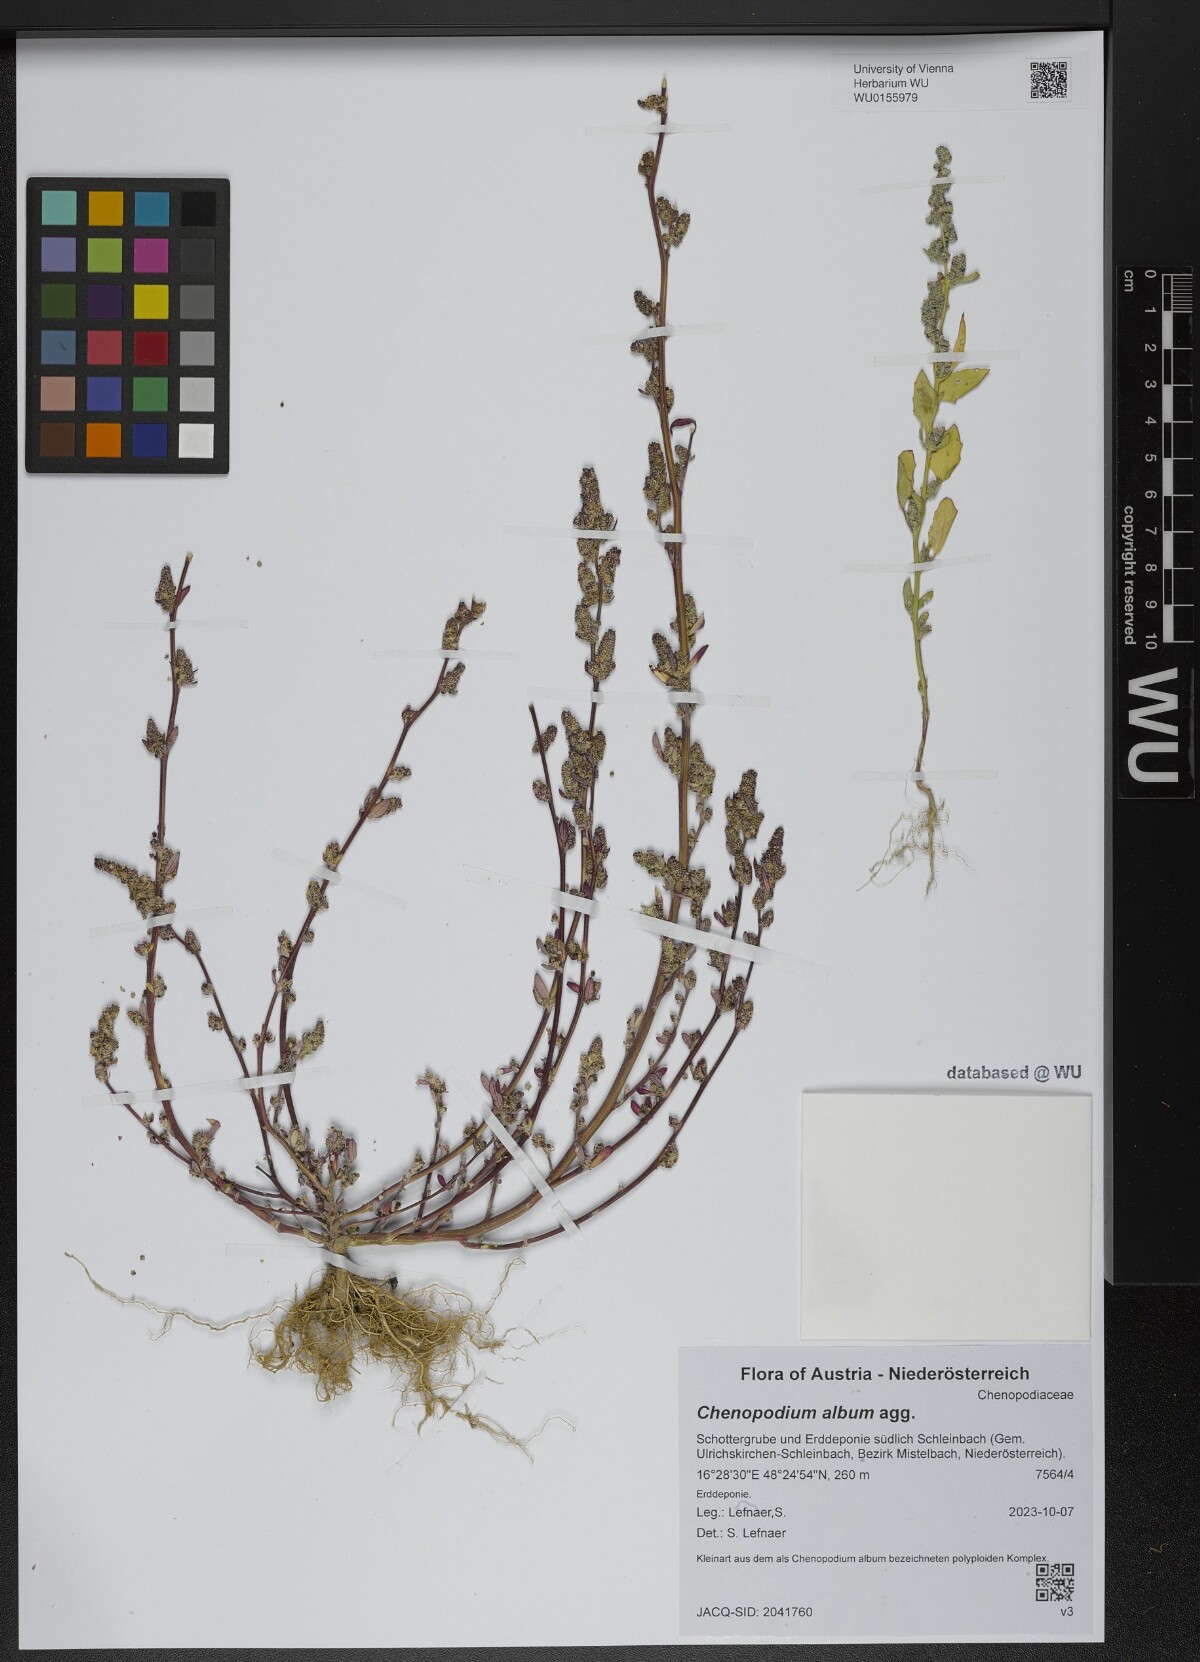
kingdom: Plantae
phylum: Tracheophyta
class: Magnoliopsida
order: Caryophyllales
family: Amaranthaceae
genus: Chenopodium
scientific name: Chenopodium album
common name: Fat-hen
